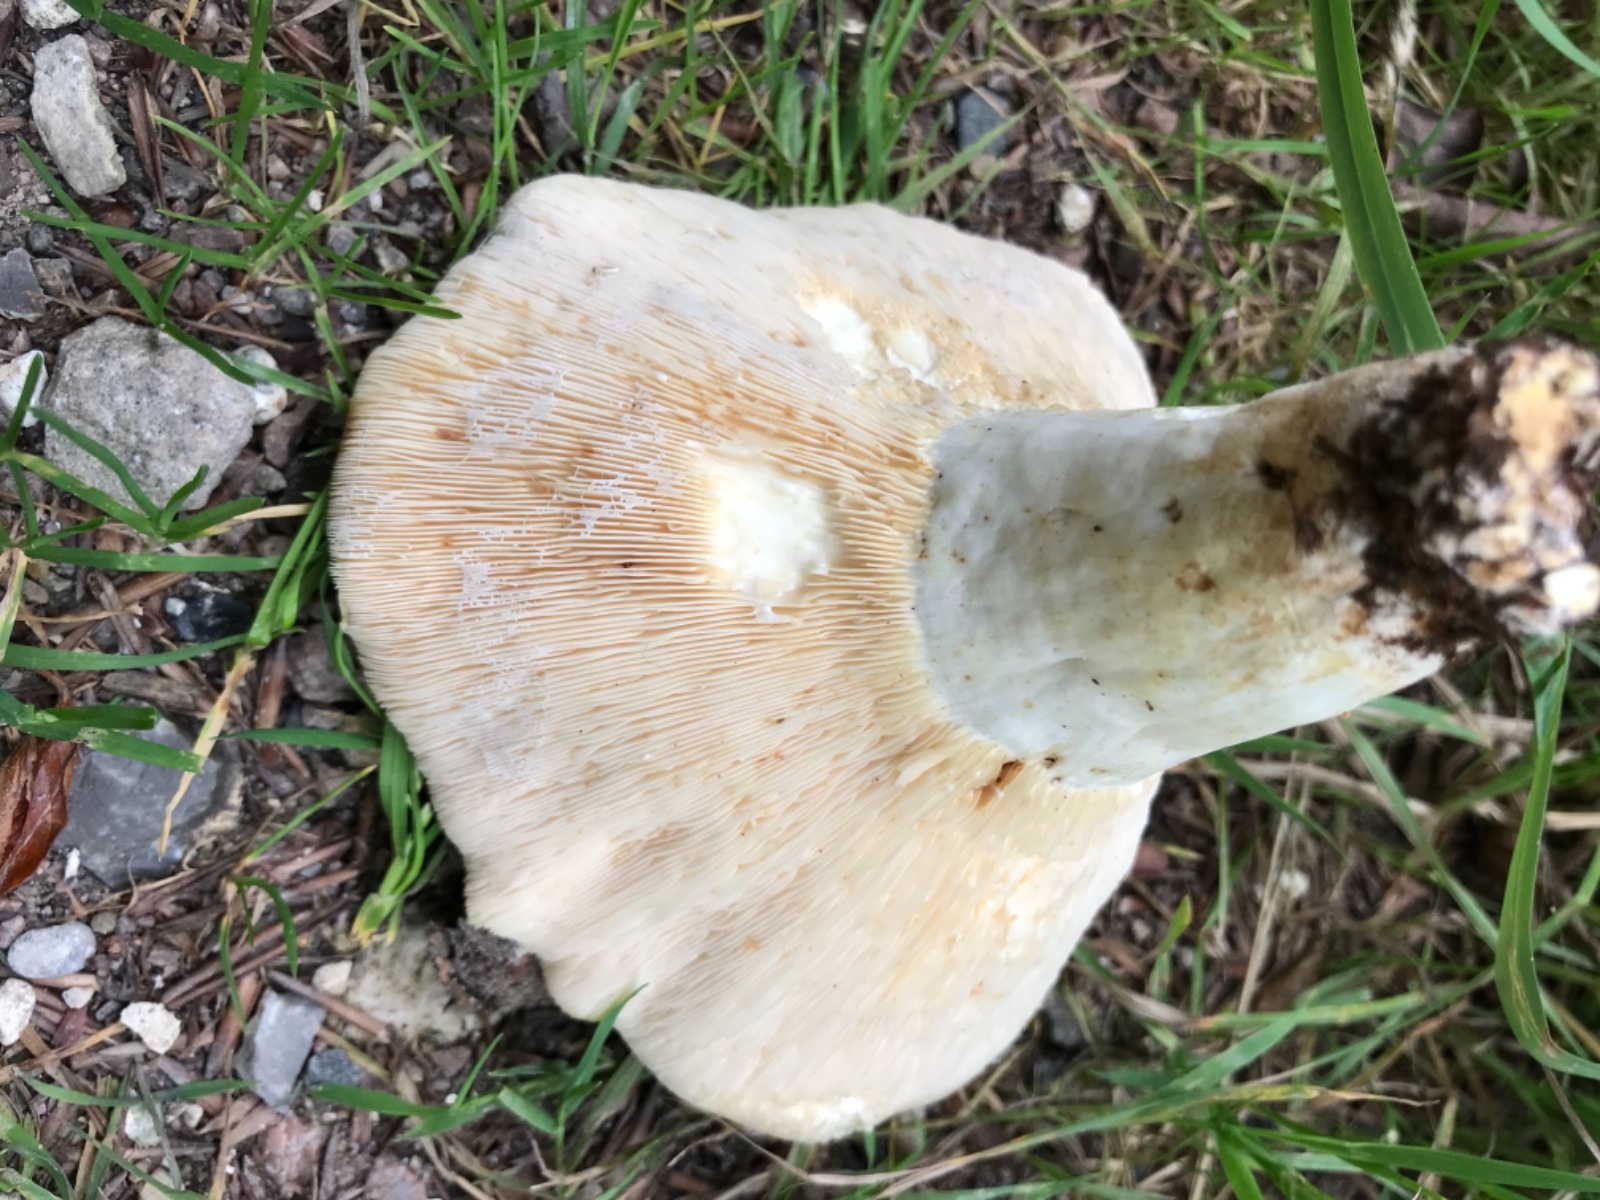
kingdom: Fungi
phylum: Basidiomycota
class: Agaricomycetes
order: Russulales
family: Russulaceae
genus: Lactifluus
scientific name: Lactifluus
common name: mælkehat
